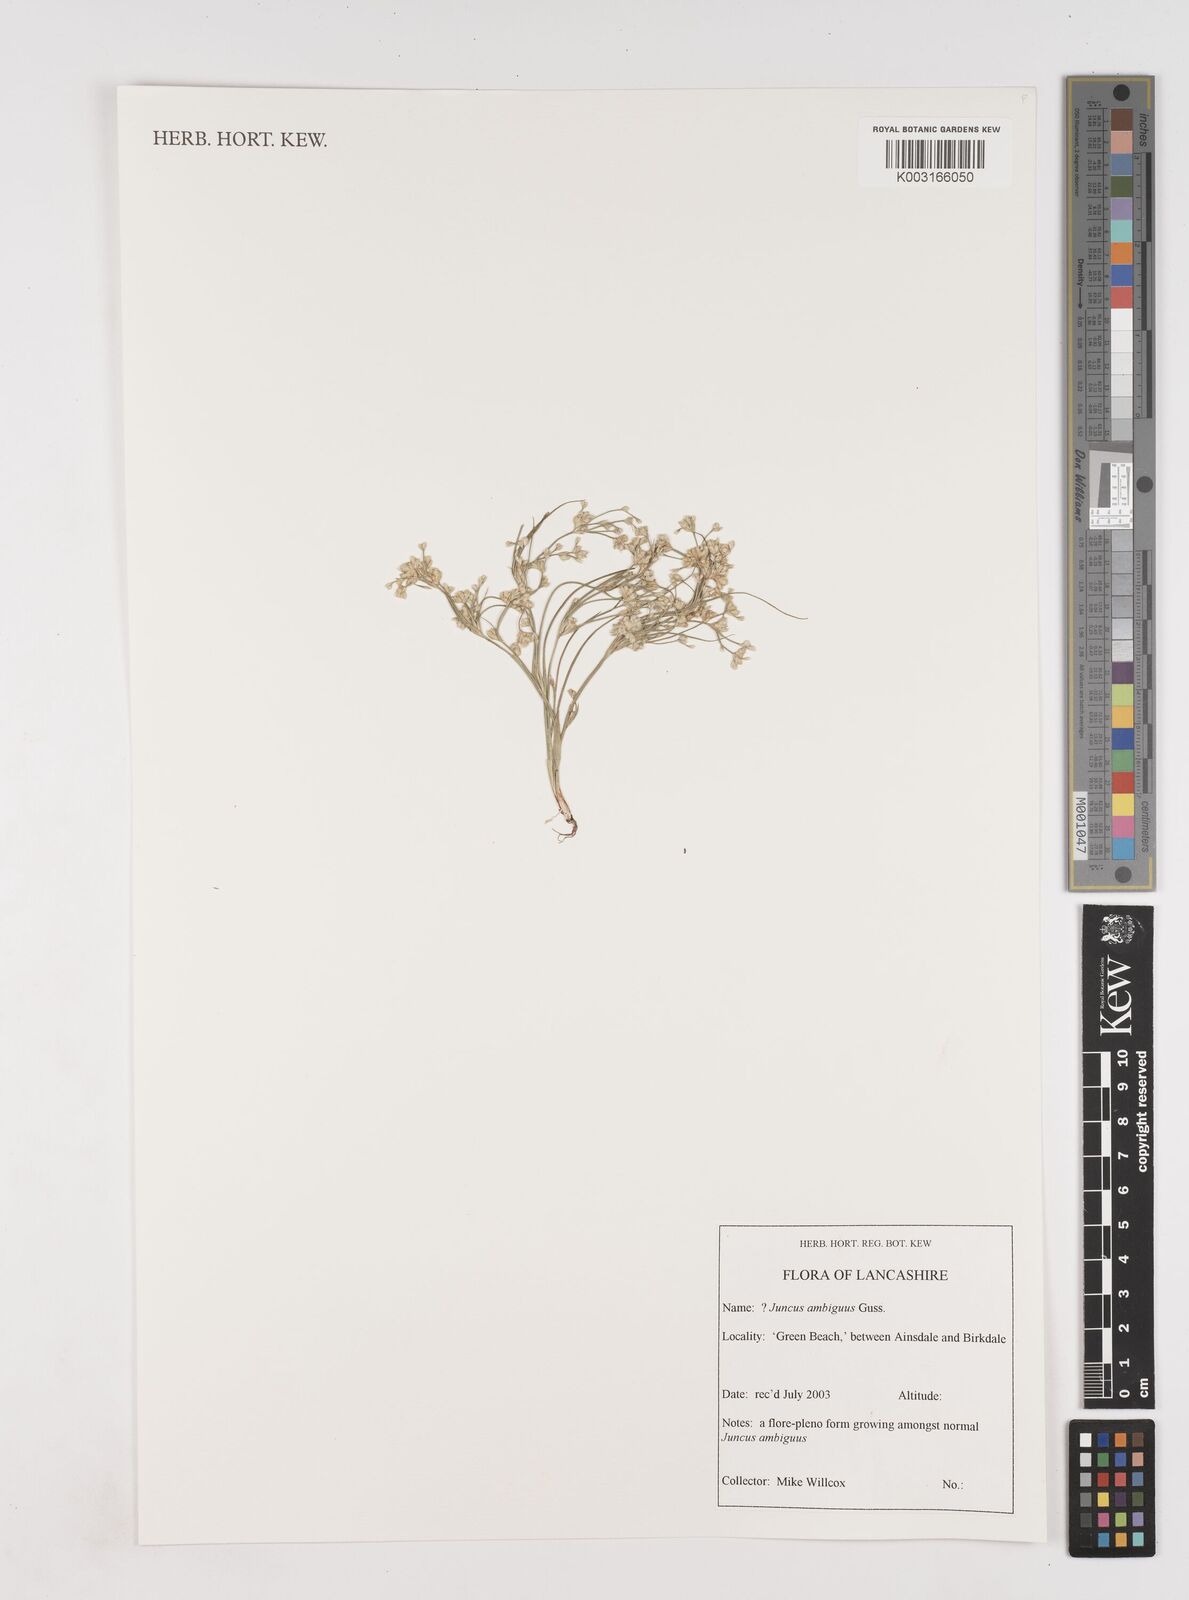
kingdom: Plantae
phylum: Tracheophyta
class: Liliopsida
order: Poales
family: Juncaceae
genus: Juncus
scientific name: Juncus hybridus
